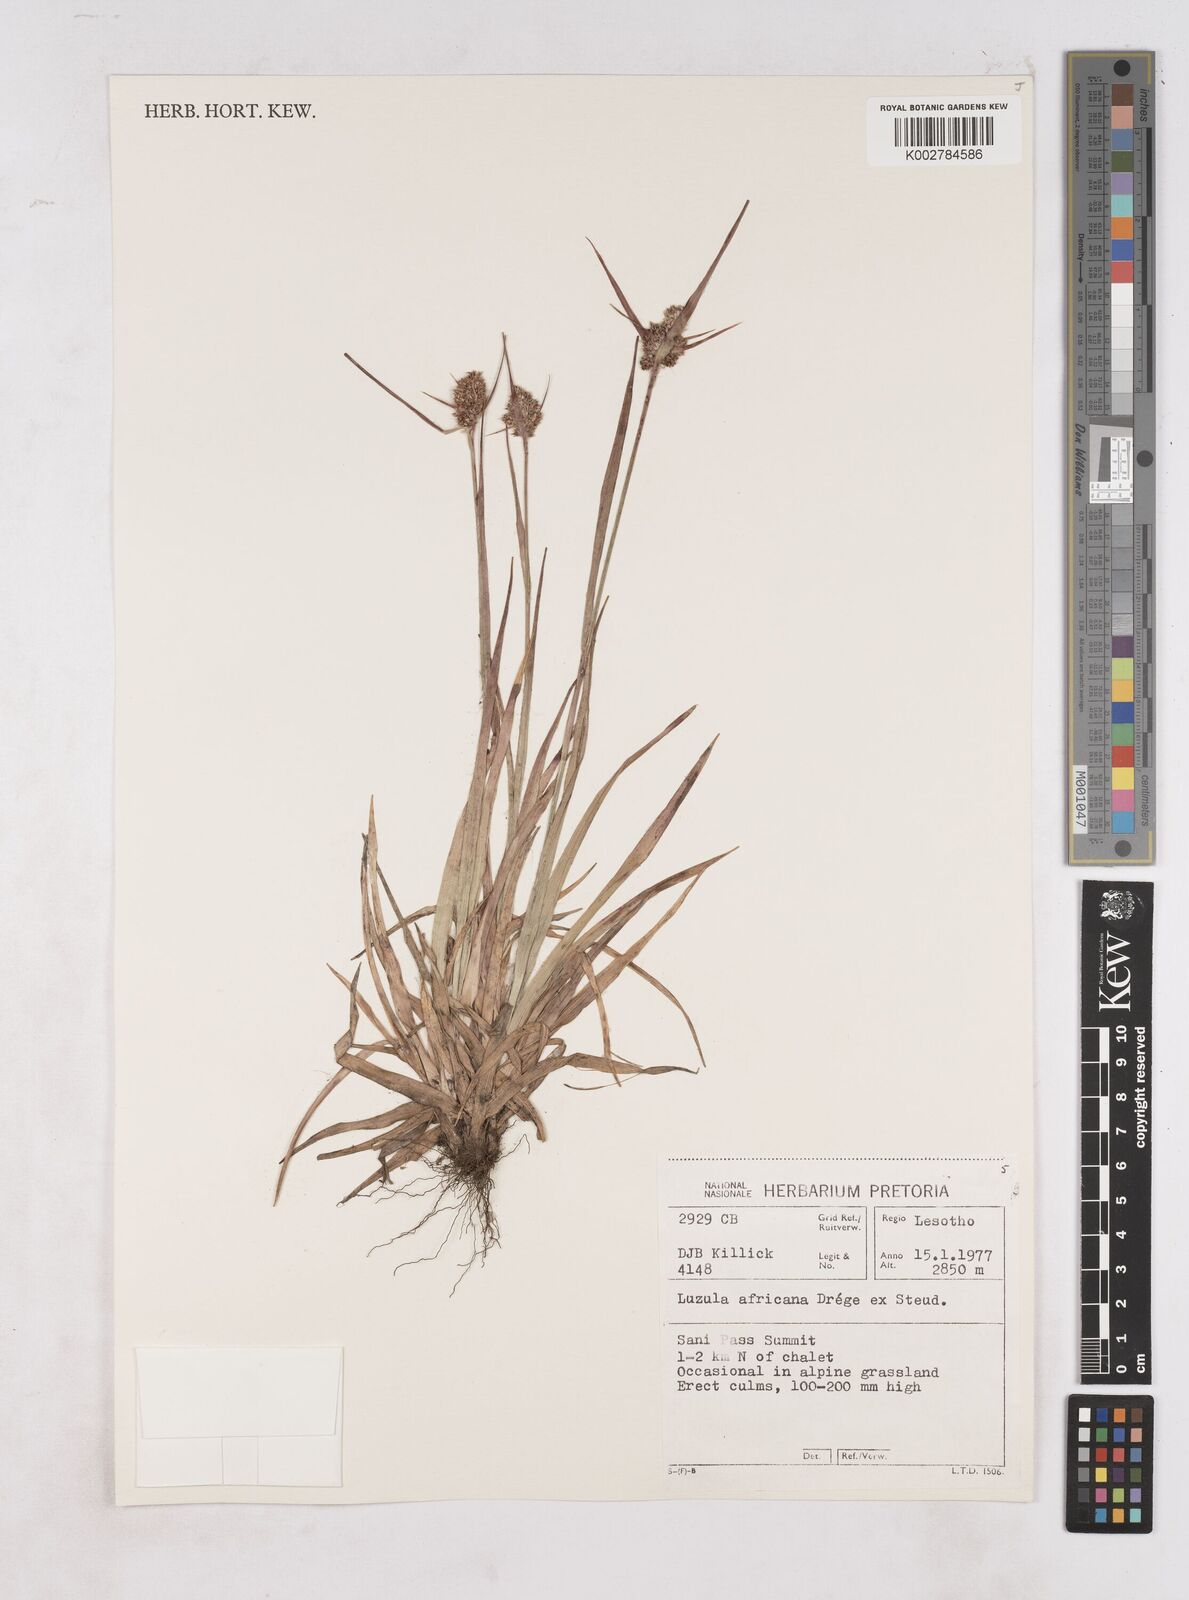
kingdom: Plantae
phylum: Tracheophyta
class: Liliopsida
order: Poales
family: Juncaceae
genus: Luzula
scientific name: Luzula africana
